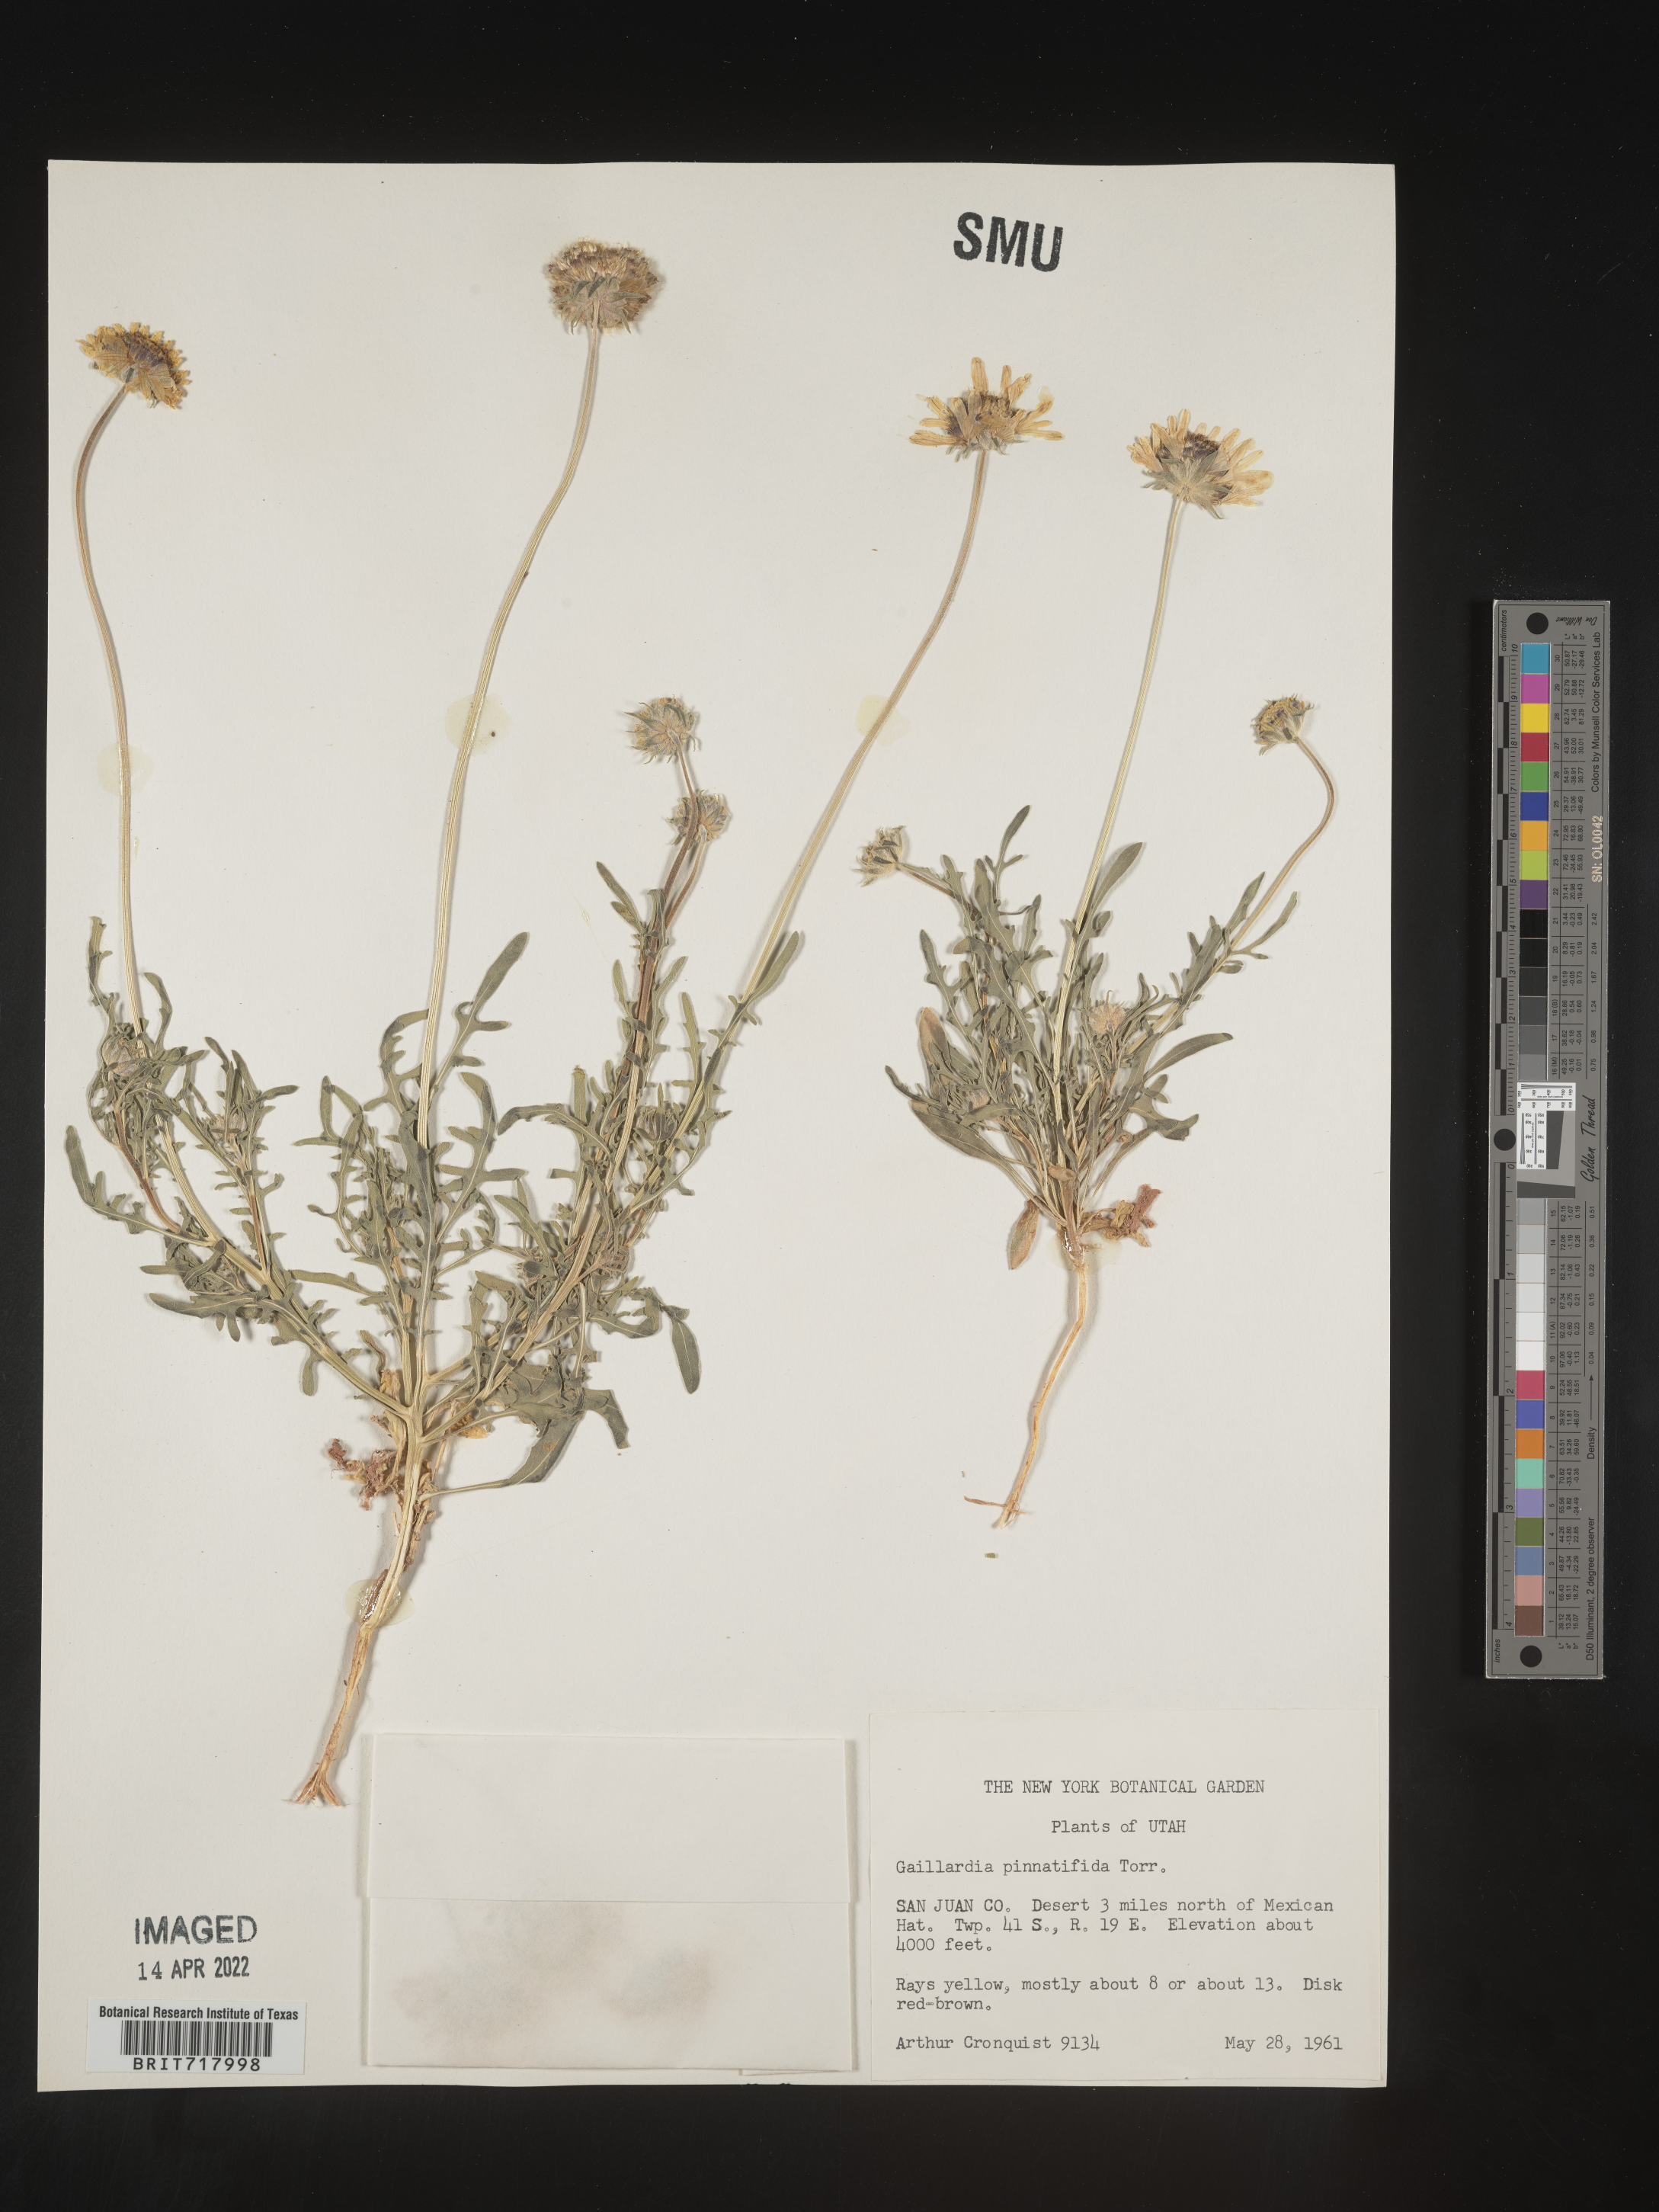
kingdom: Plantae
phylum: Tracheophyta
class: Magnoliopsida
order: Asterales
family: Asteraceae
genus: Gaillardia
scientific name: Gaillardia pinnatifida
